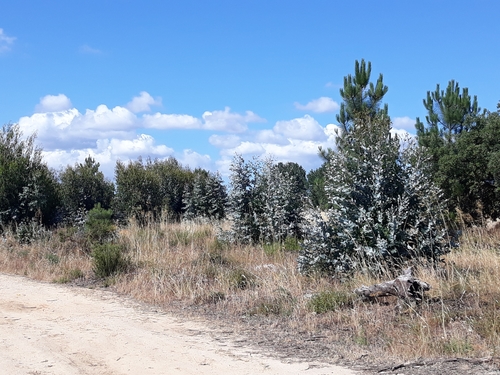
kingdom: Plantae
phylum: Tracheophyta
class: Magnoliopsida
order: Myrtales
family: Myrtaceae
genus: Eucalyptus
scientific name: Eucalyptus globulus
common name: Southern blue-gum
